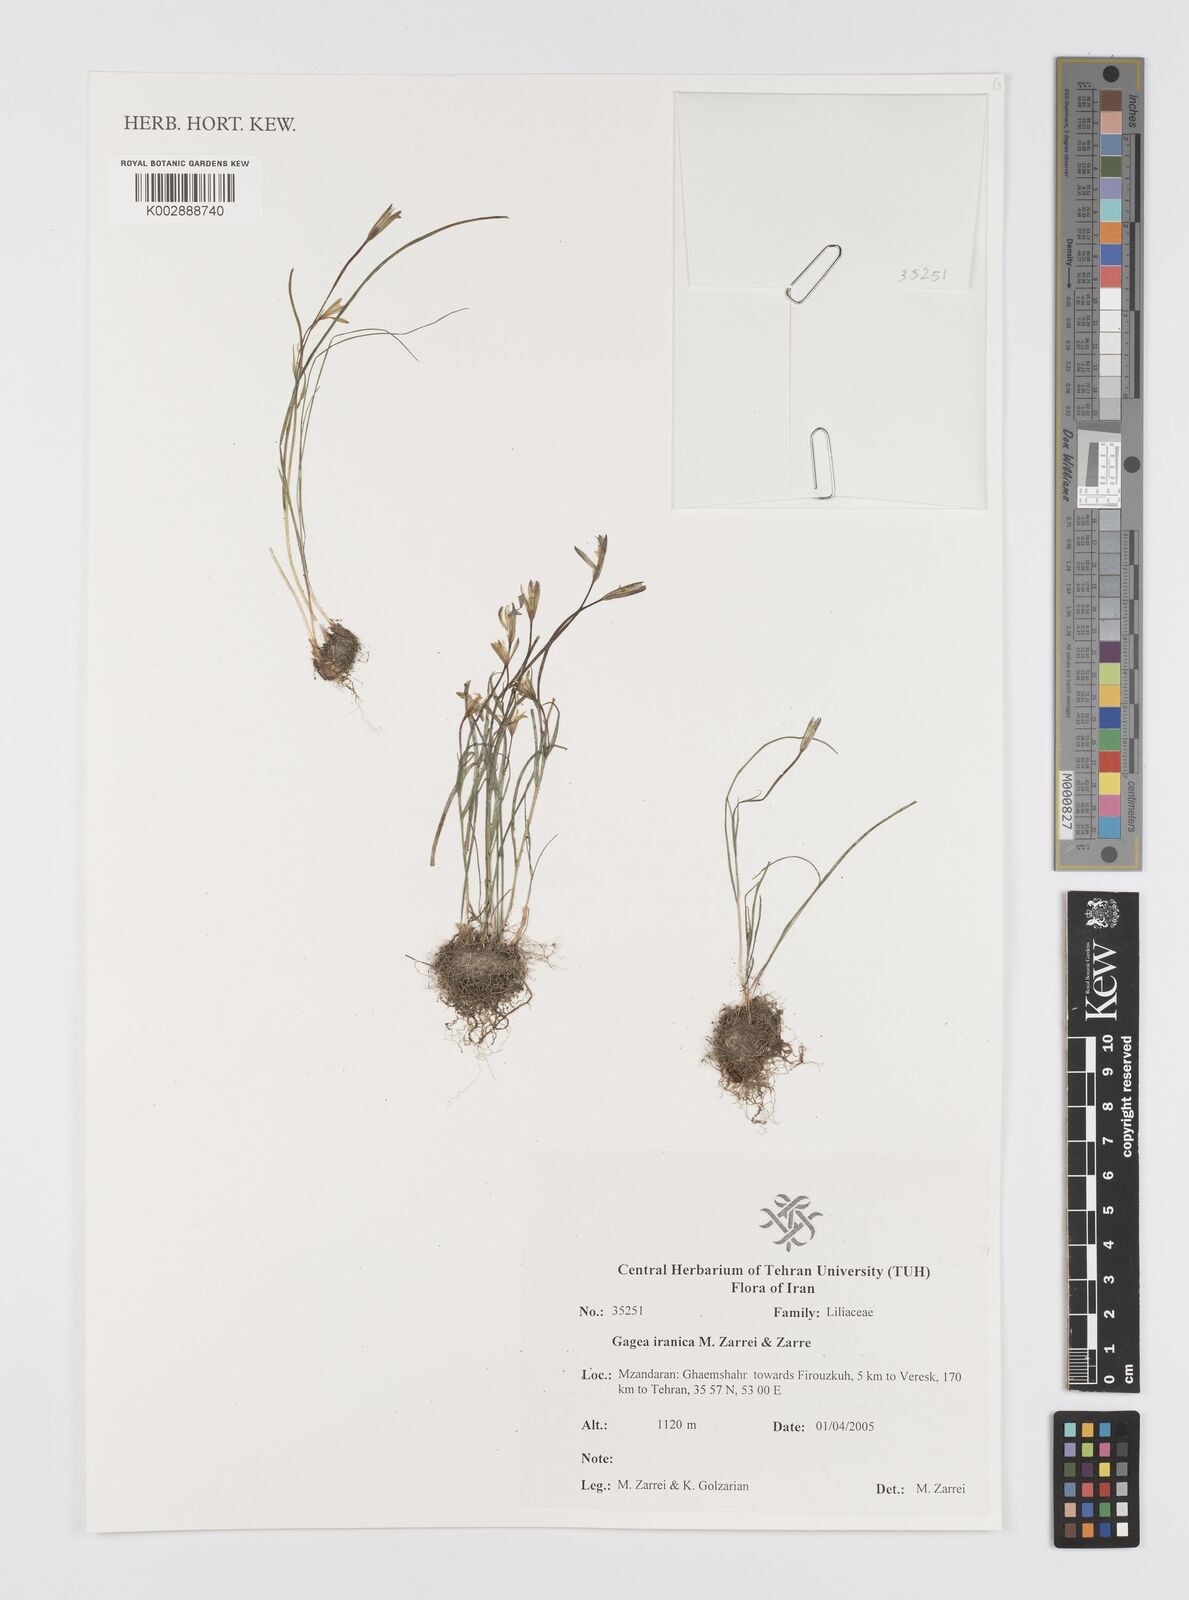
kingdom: Plantae
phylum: Tracheophyta
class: Liliopsida
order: Liliales
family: Liliaceae
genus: Gagea
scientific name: Gagea iranica
